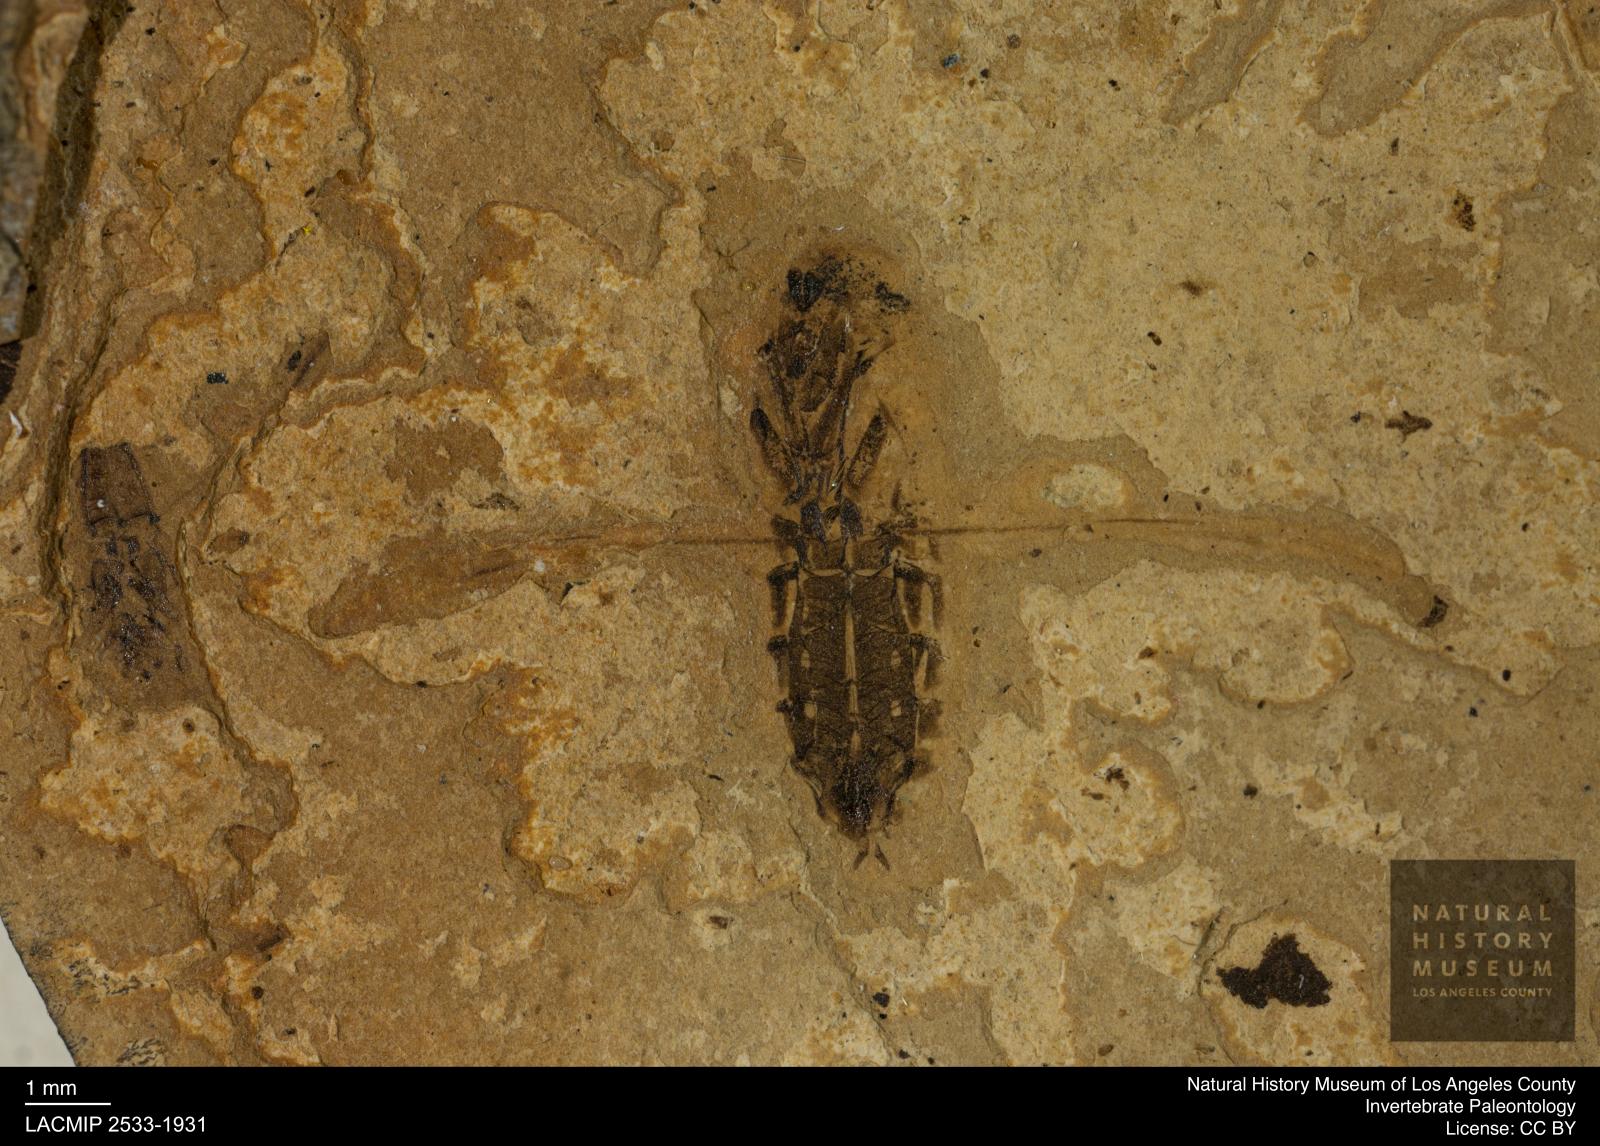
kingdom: Animalia
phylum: Arthropoda
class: Insecta
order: Hemiptera
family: Notonectidae
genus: Anisops
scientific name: Anisops Notonecta deichmuelleri
